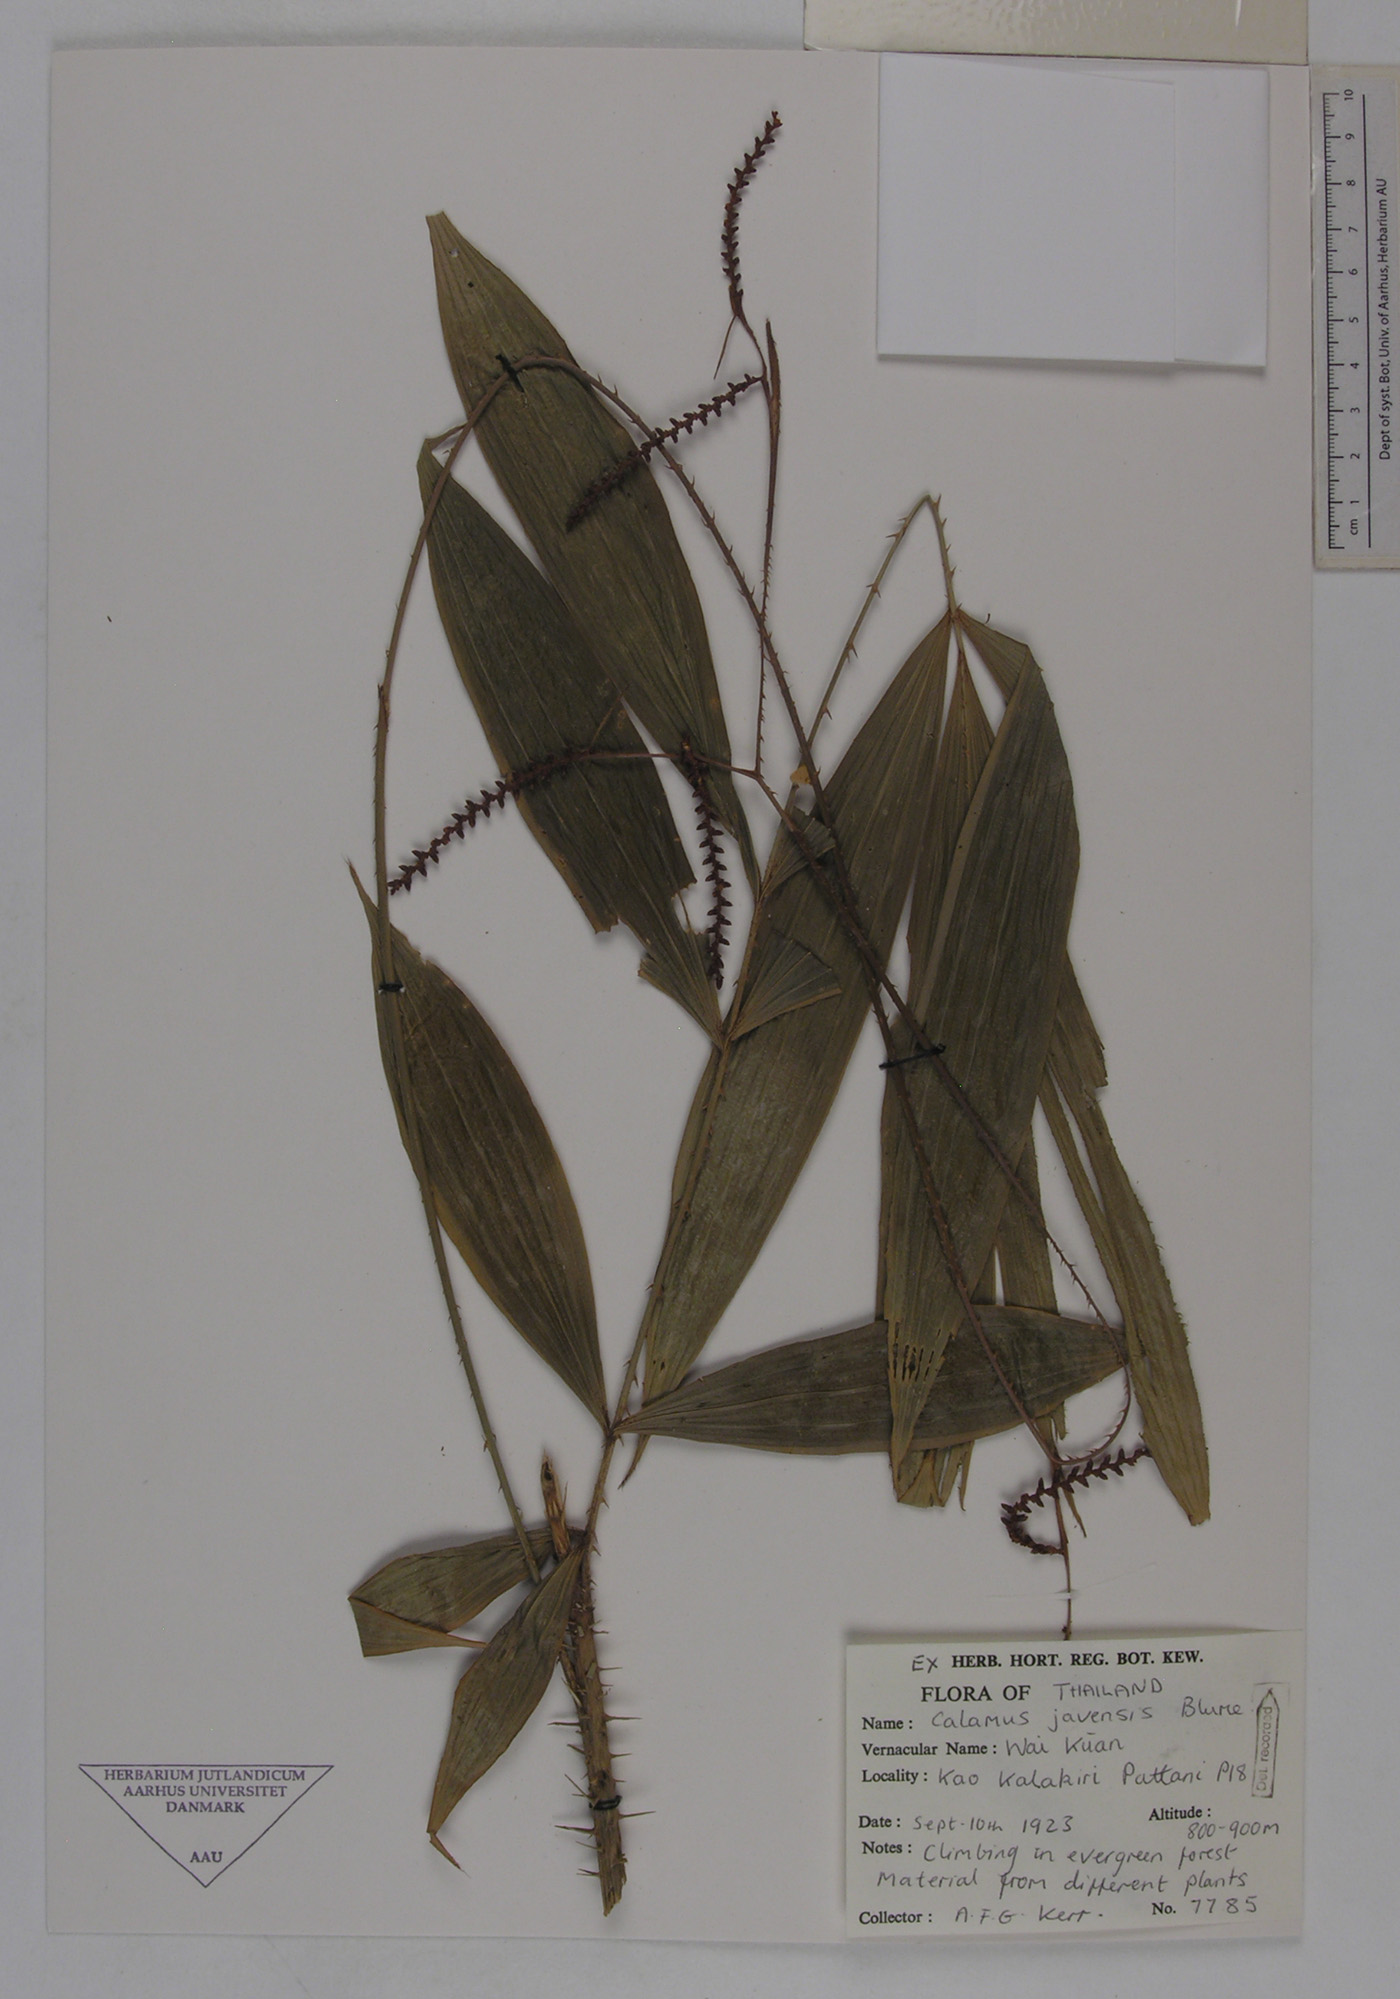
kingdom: Plantae
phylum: Tracheophyta
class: Liliopsida
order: Arecales
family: Arecaceae
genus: Calamus
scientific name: Calamus javensis
